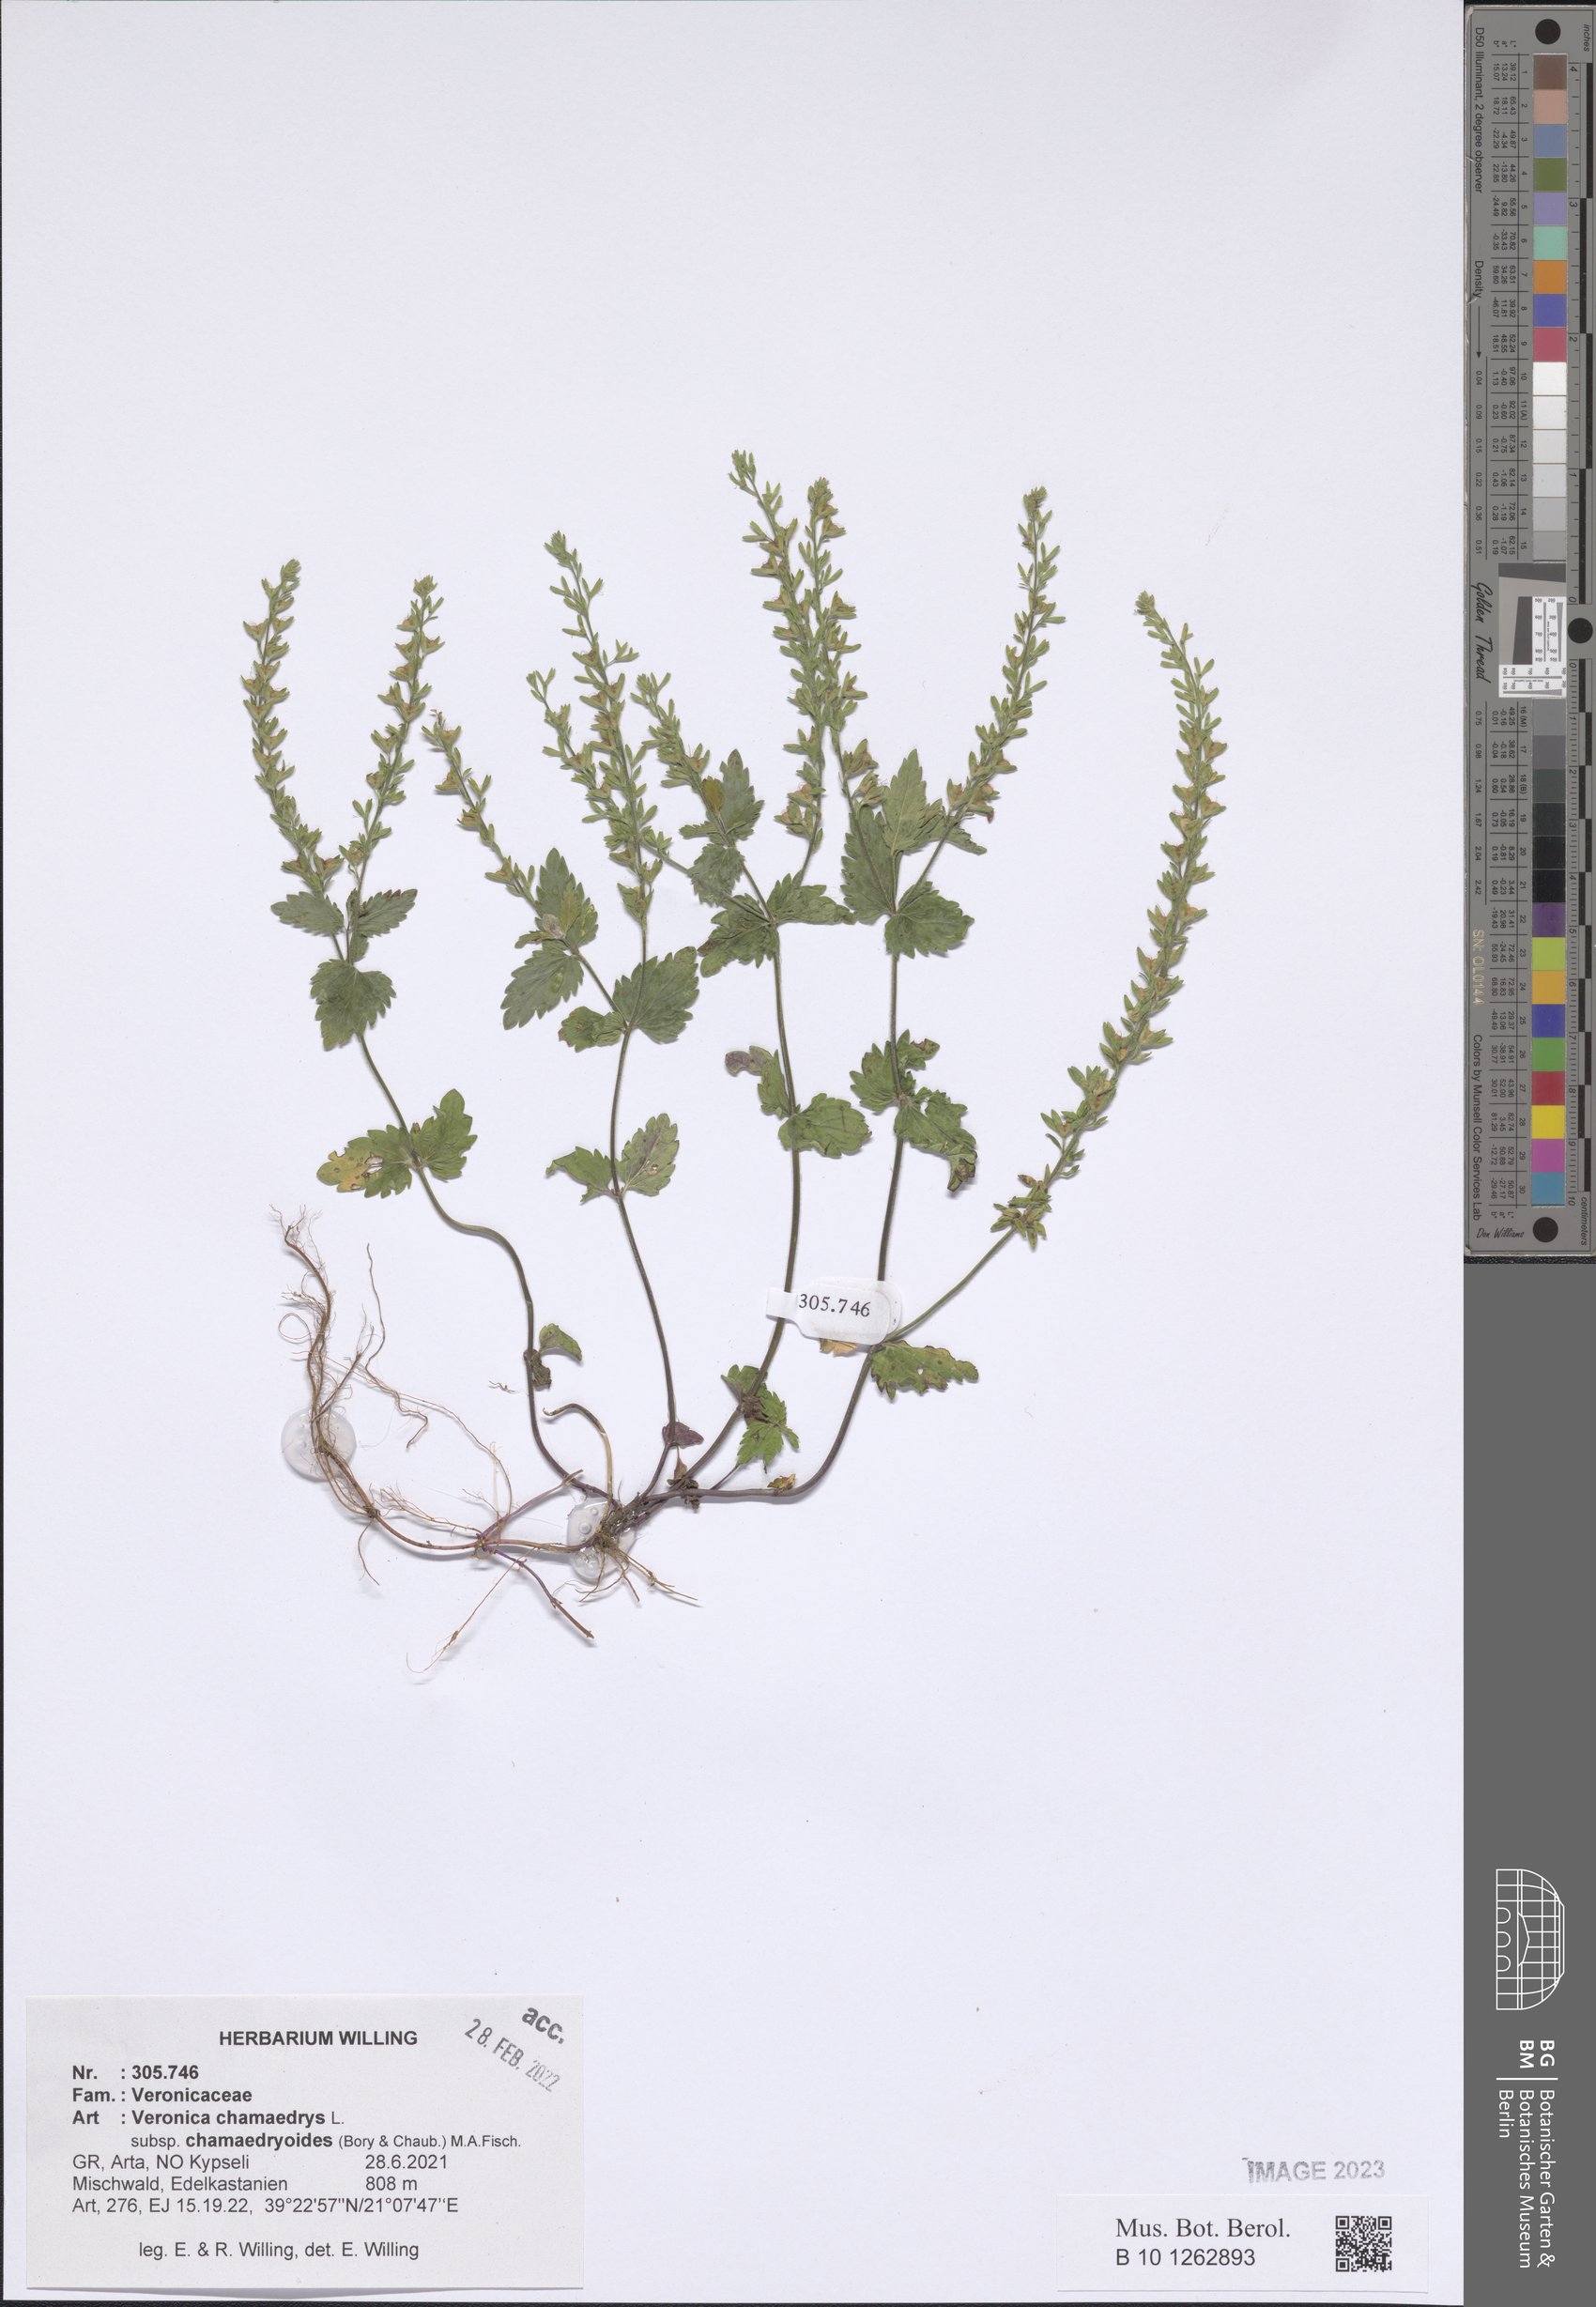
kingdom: Plantae
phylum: Tracheophyta
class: Magnoliopsida
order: Lamiales
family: Plantaginaceae
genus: Veronica
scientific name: Veronica chamaedrys
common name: Germander speedwell
